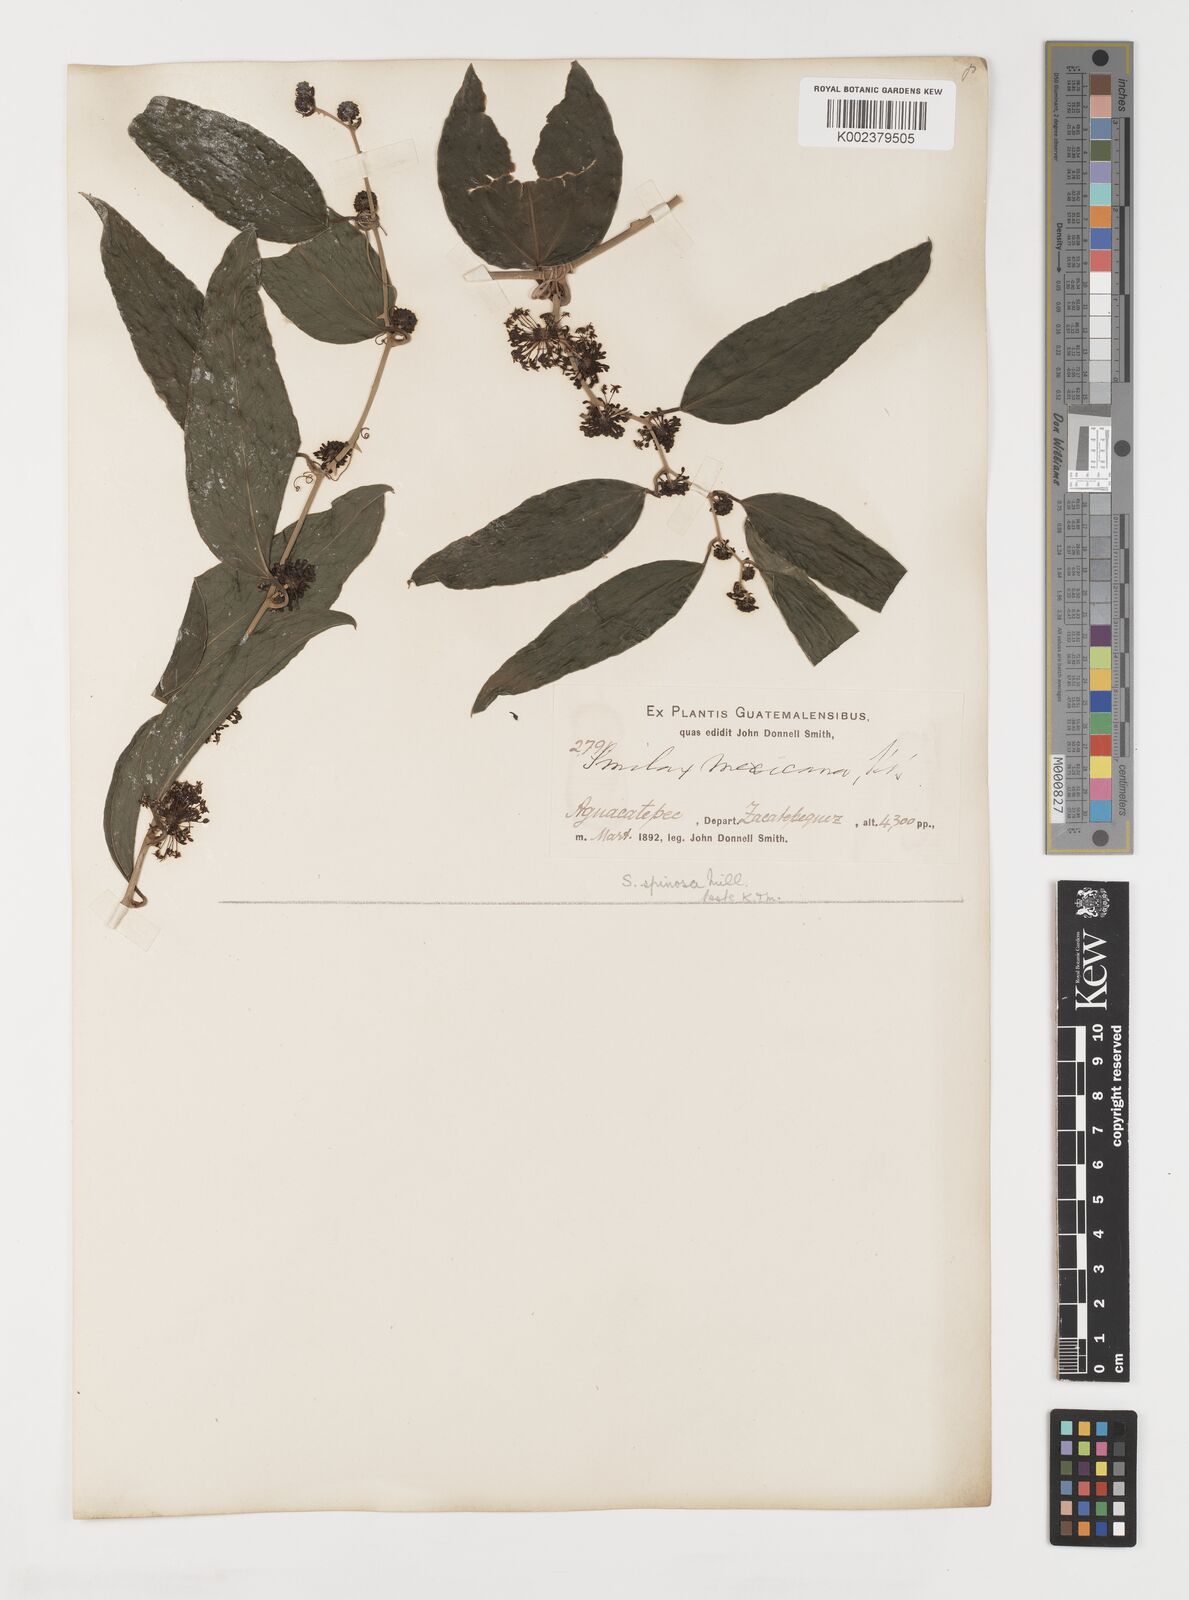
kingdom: Plantae
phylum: Tracheophyta
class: Liliopsida
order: Liliales
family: Smilacaceae
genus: Smilax
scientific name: Smilax spinosa
